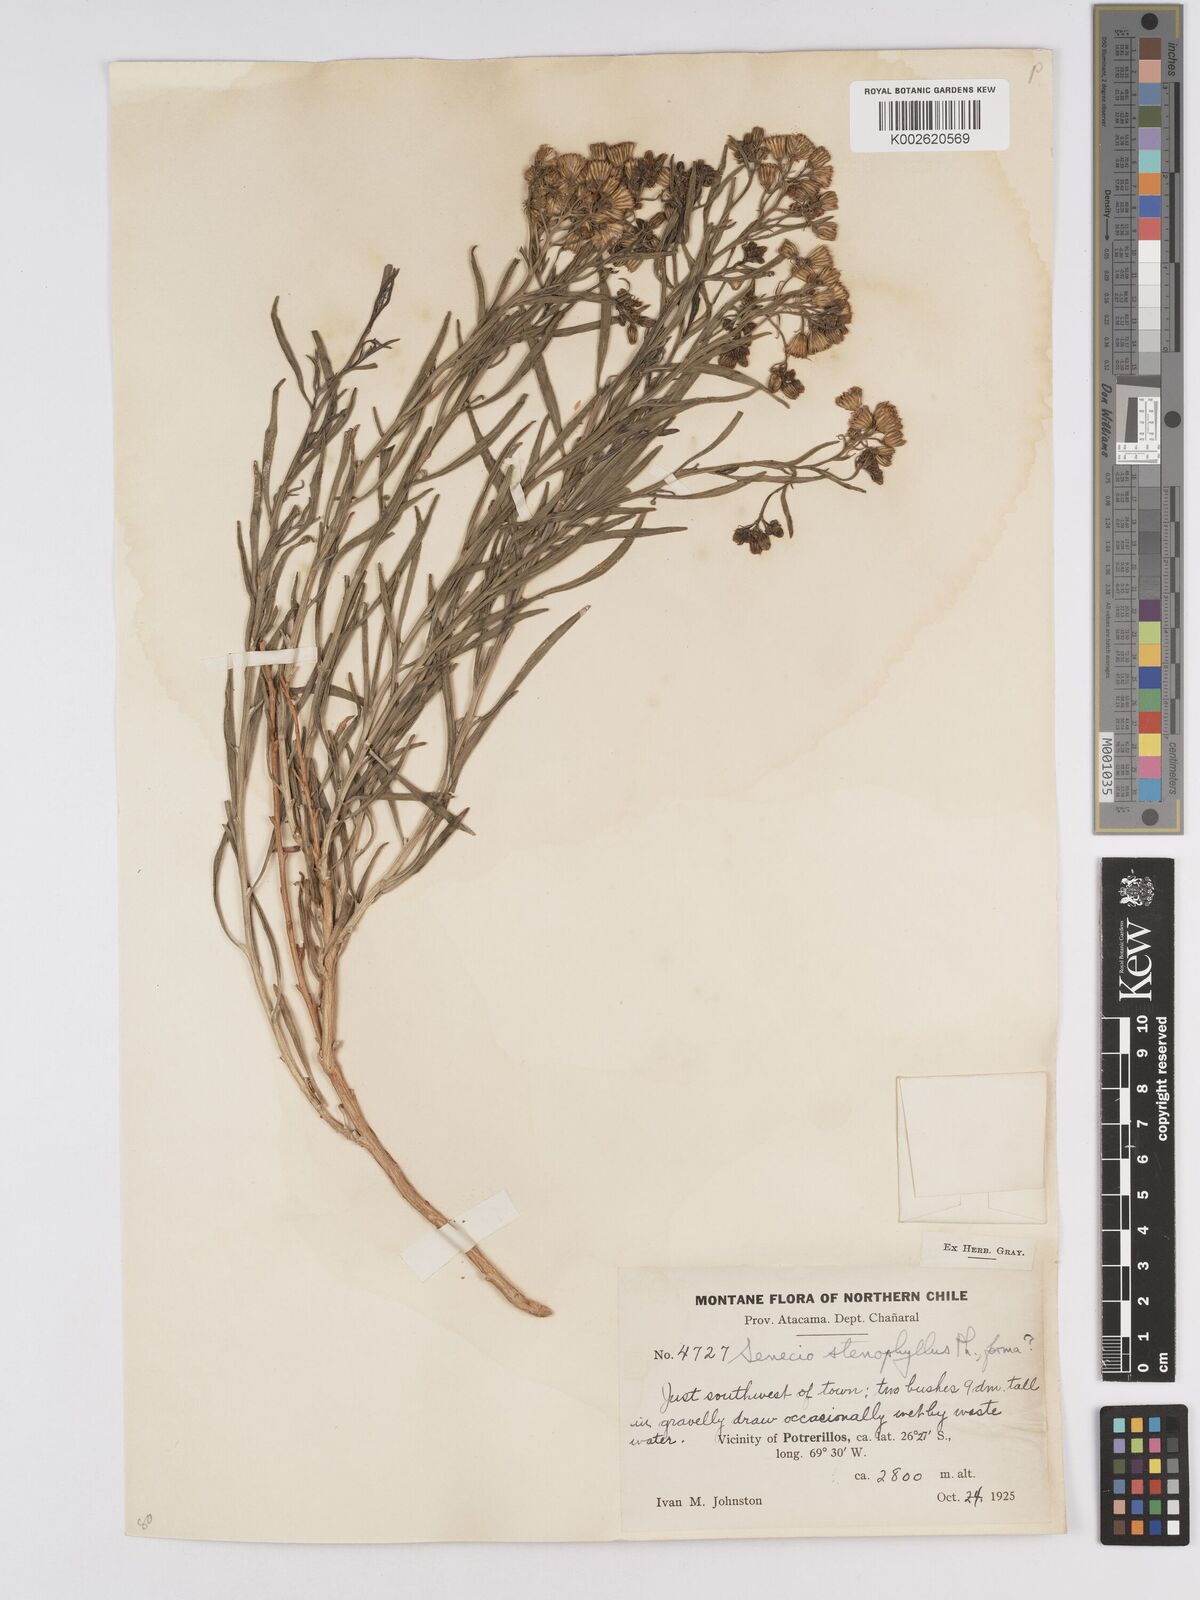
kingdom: Plantae
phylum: Tracheophyta
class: Magnoliopsida
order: Asterales
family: Asteraceae
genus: Senecio
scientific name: Senecio proteus
